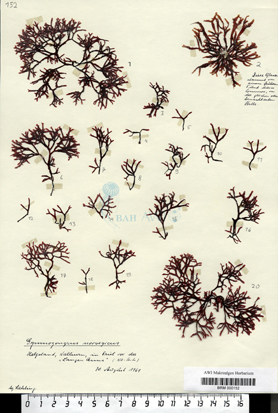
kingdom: Plantae
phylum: Rhodophyta
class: Florideophyceae
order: Gigartinales
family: Gigartinaceae
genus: Chondrus
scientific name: Chondrus crispus
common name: Carrageen
